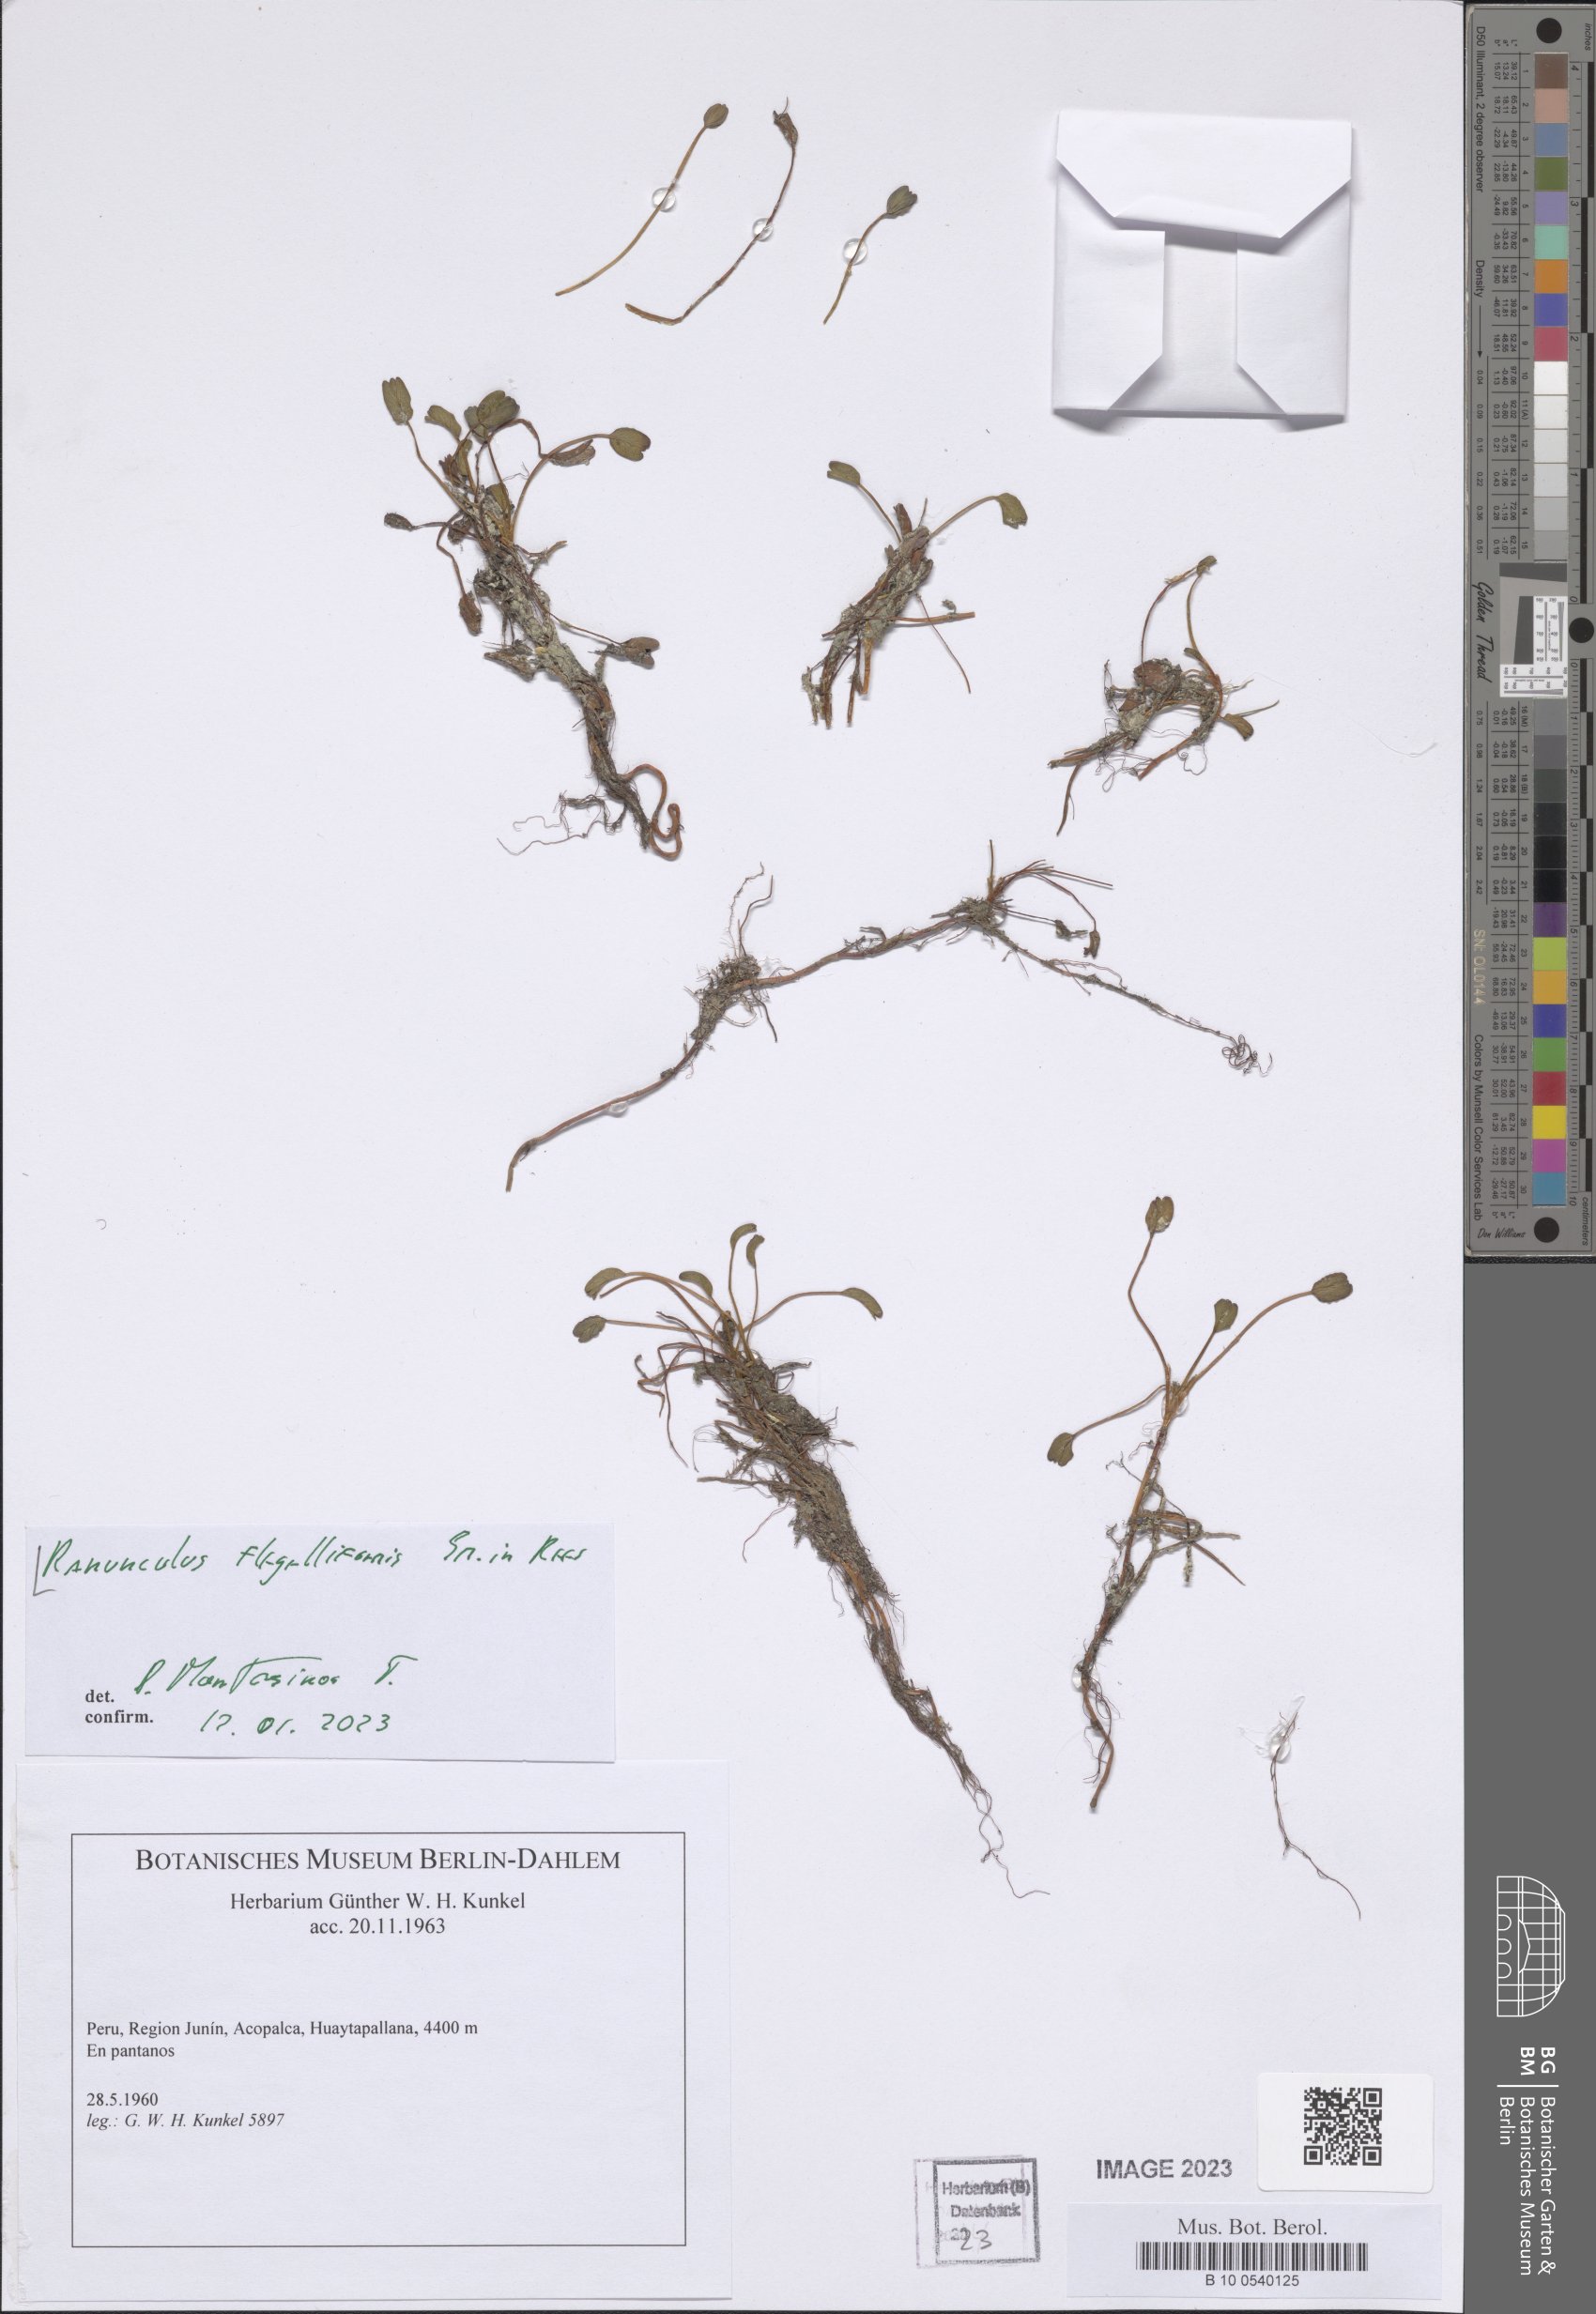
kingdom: Plantae
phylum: Tracheophyta
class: Magnoliopsida
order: Ranunculales
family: Ranunculaceae
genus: Ranunculus
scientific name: Ranunculus flagelliformis
